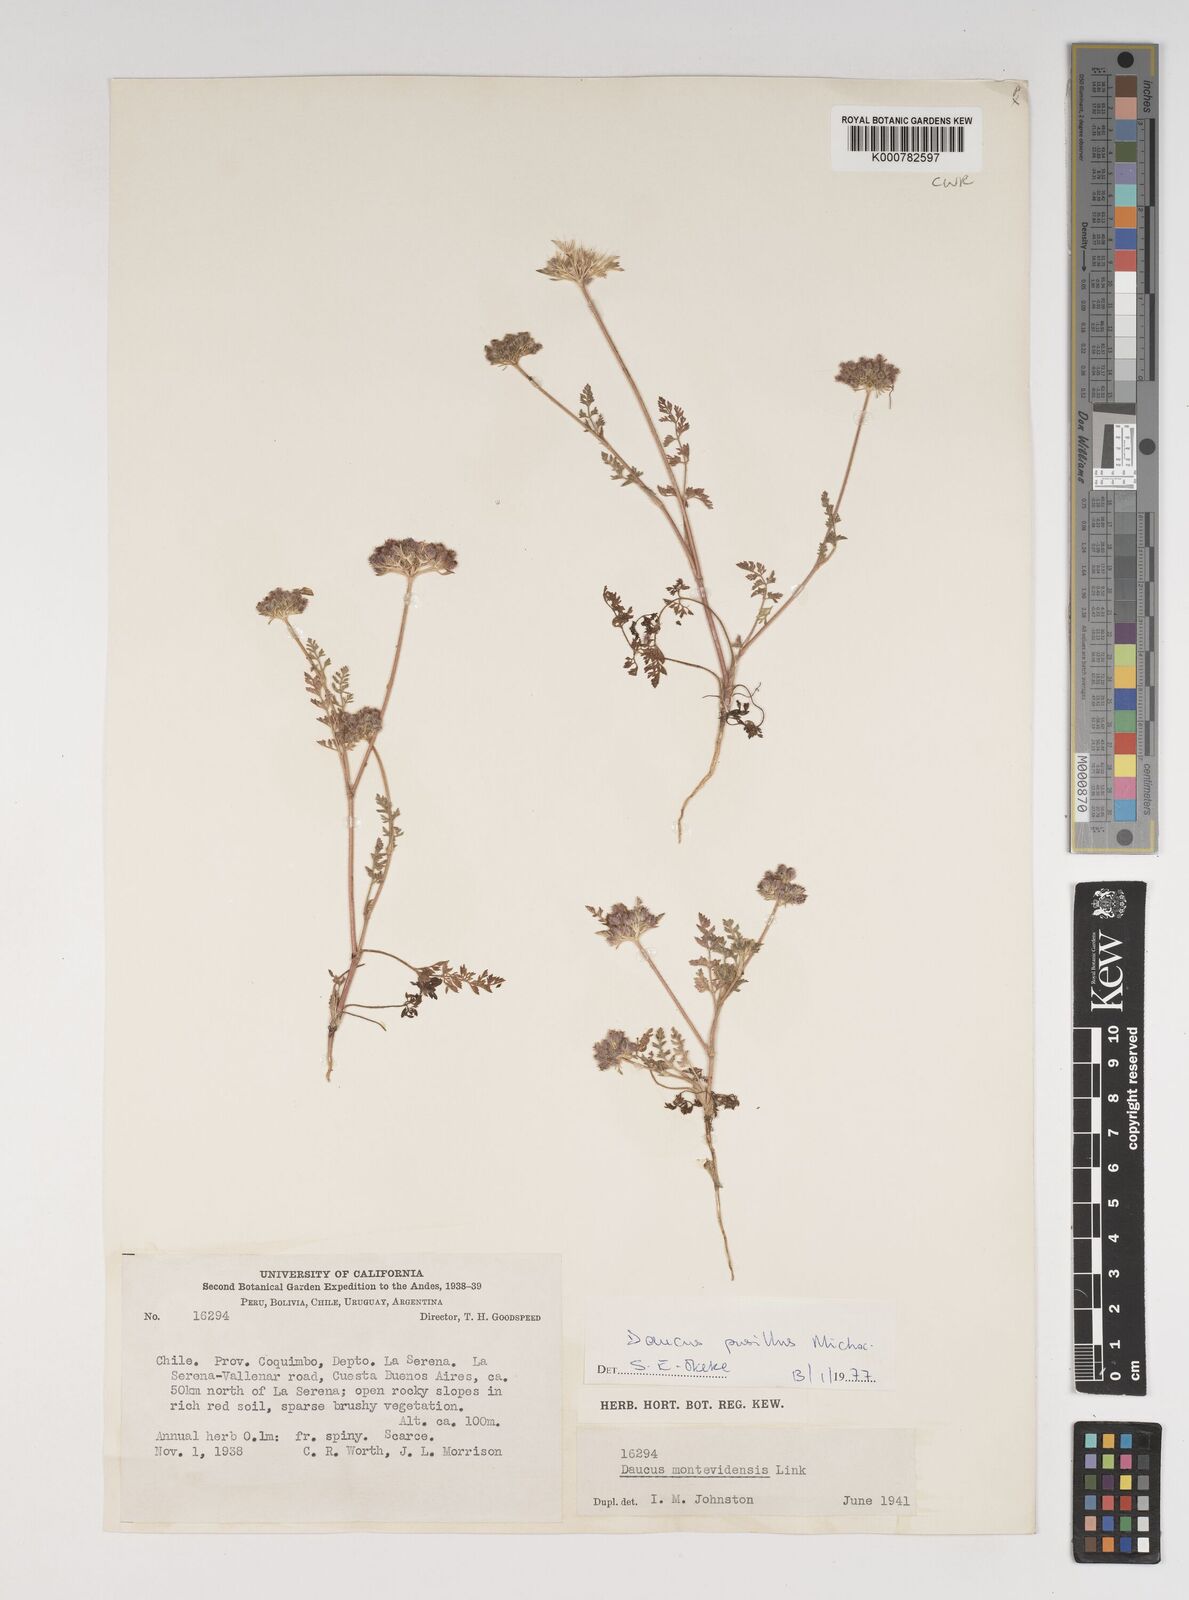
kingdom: Plantae
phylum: Tracheophyta
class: Magnoliopsida
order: Apiales
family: Apiaceae
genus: Daucus
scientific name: Daucus pusillus
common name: Southwest wild carrot
